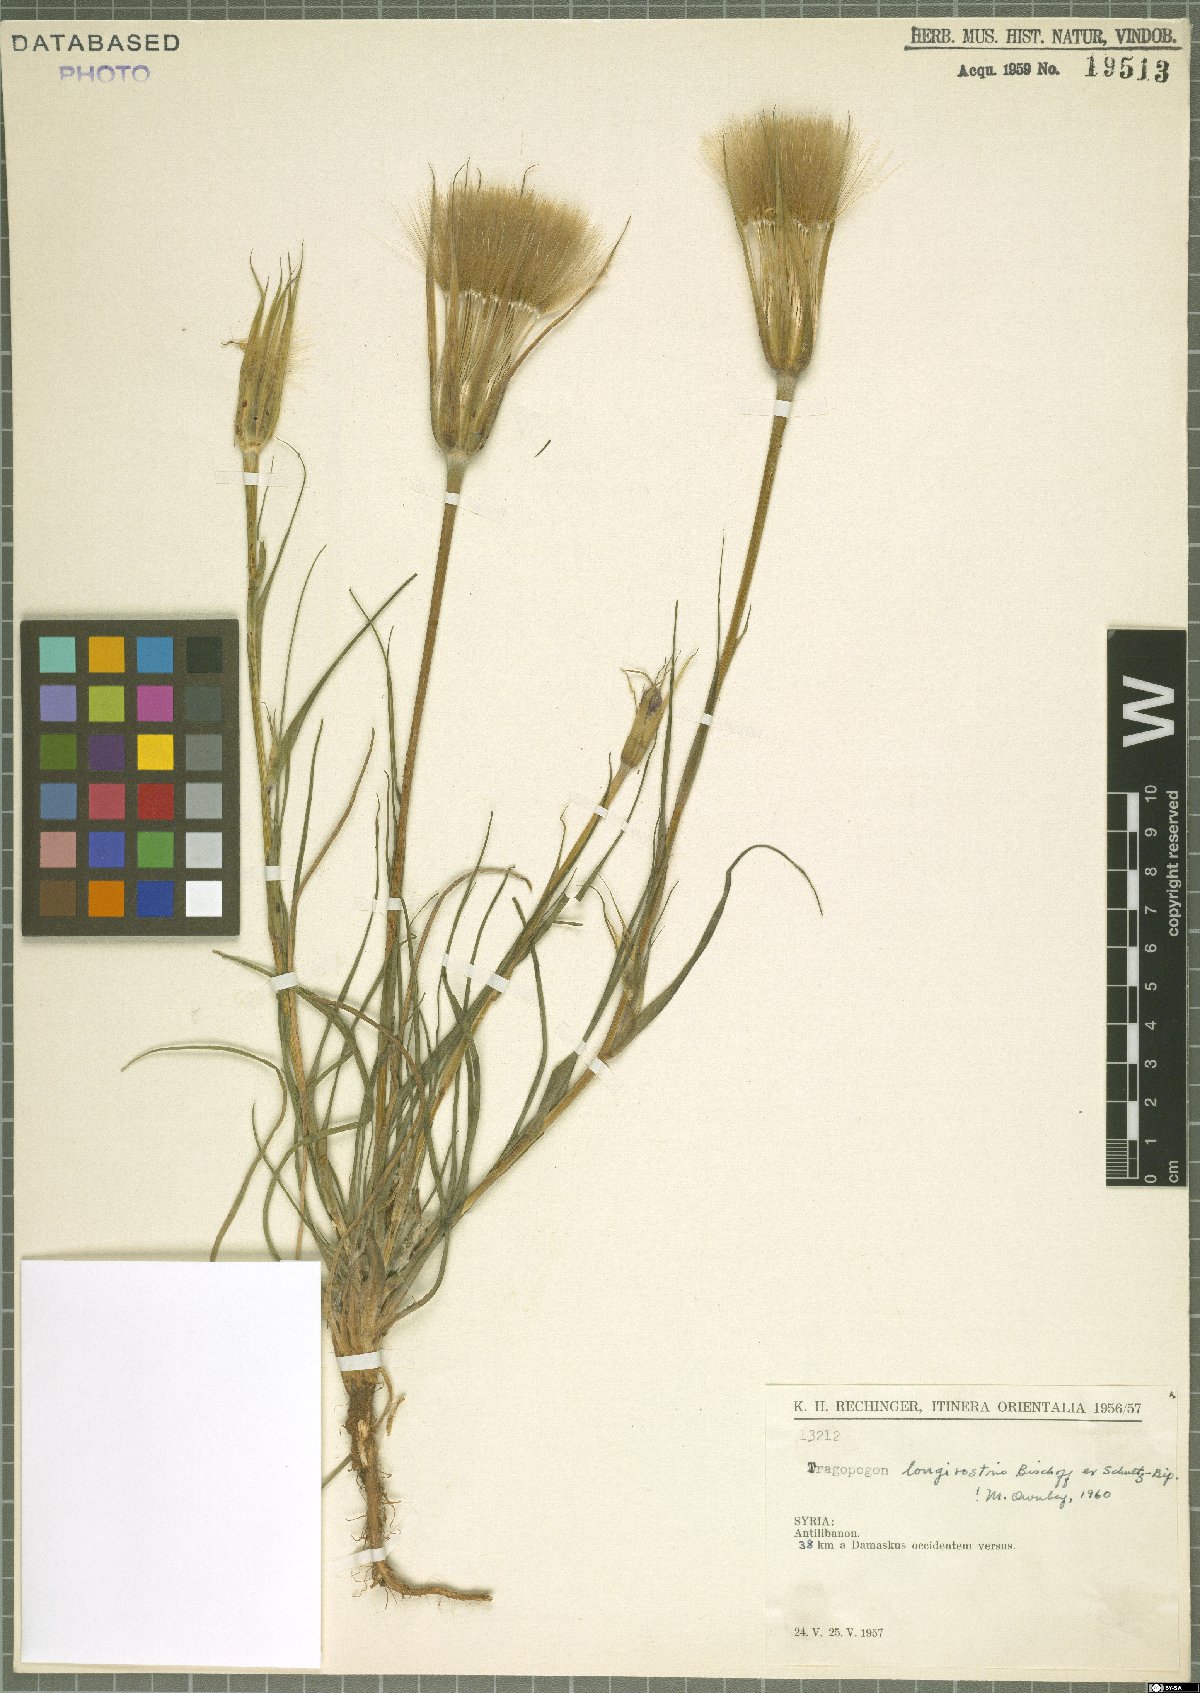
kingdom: Plantae
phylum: Tracheophyta
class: Magnoliopsida
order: Asterales
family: Asteraceae
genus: Tragopogon
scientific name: Tragopogon coelesyriacus
